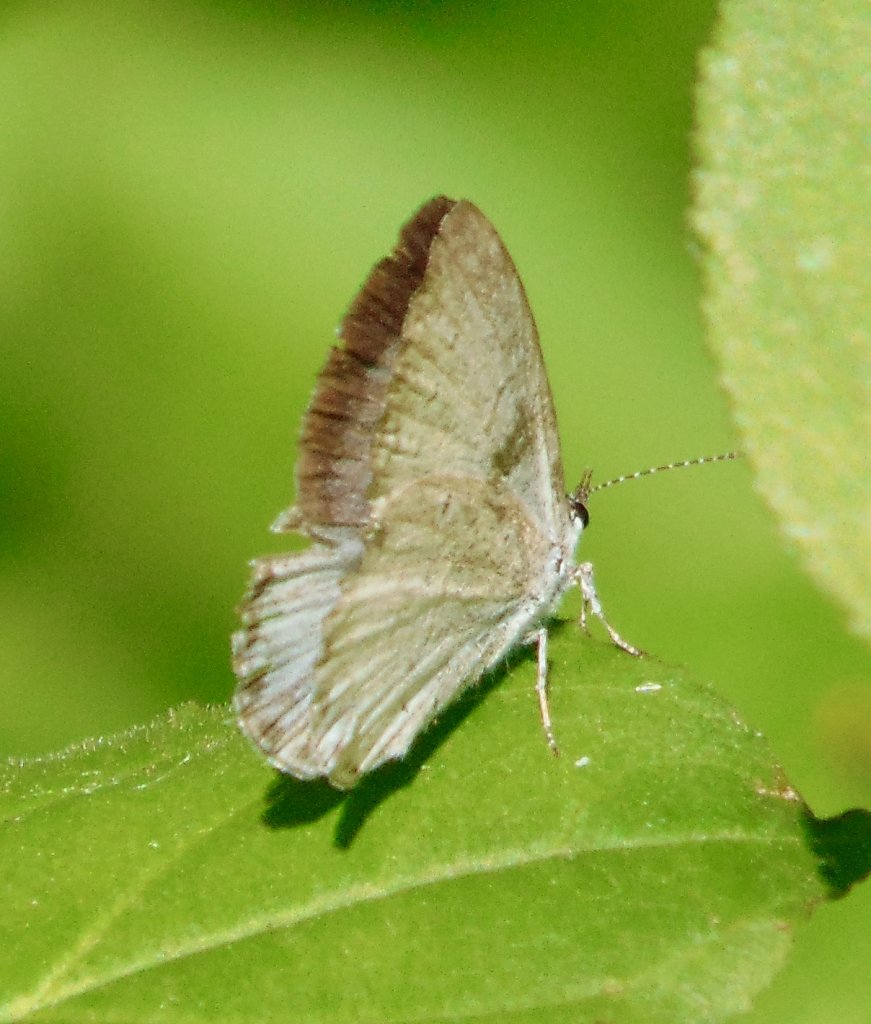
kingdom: Animalia
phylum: Arthropoda
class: Insecta
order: Lepidoptera
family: Lycaenidae
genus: Cyaniris
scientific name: Cyaniris neglecta
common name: Summer Azure
